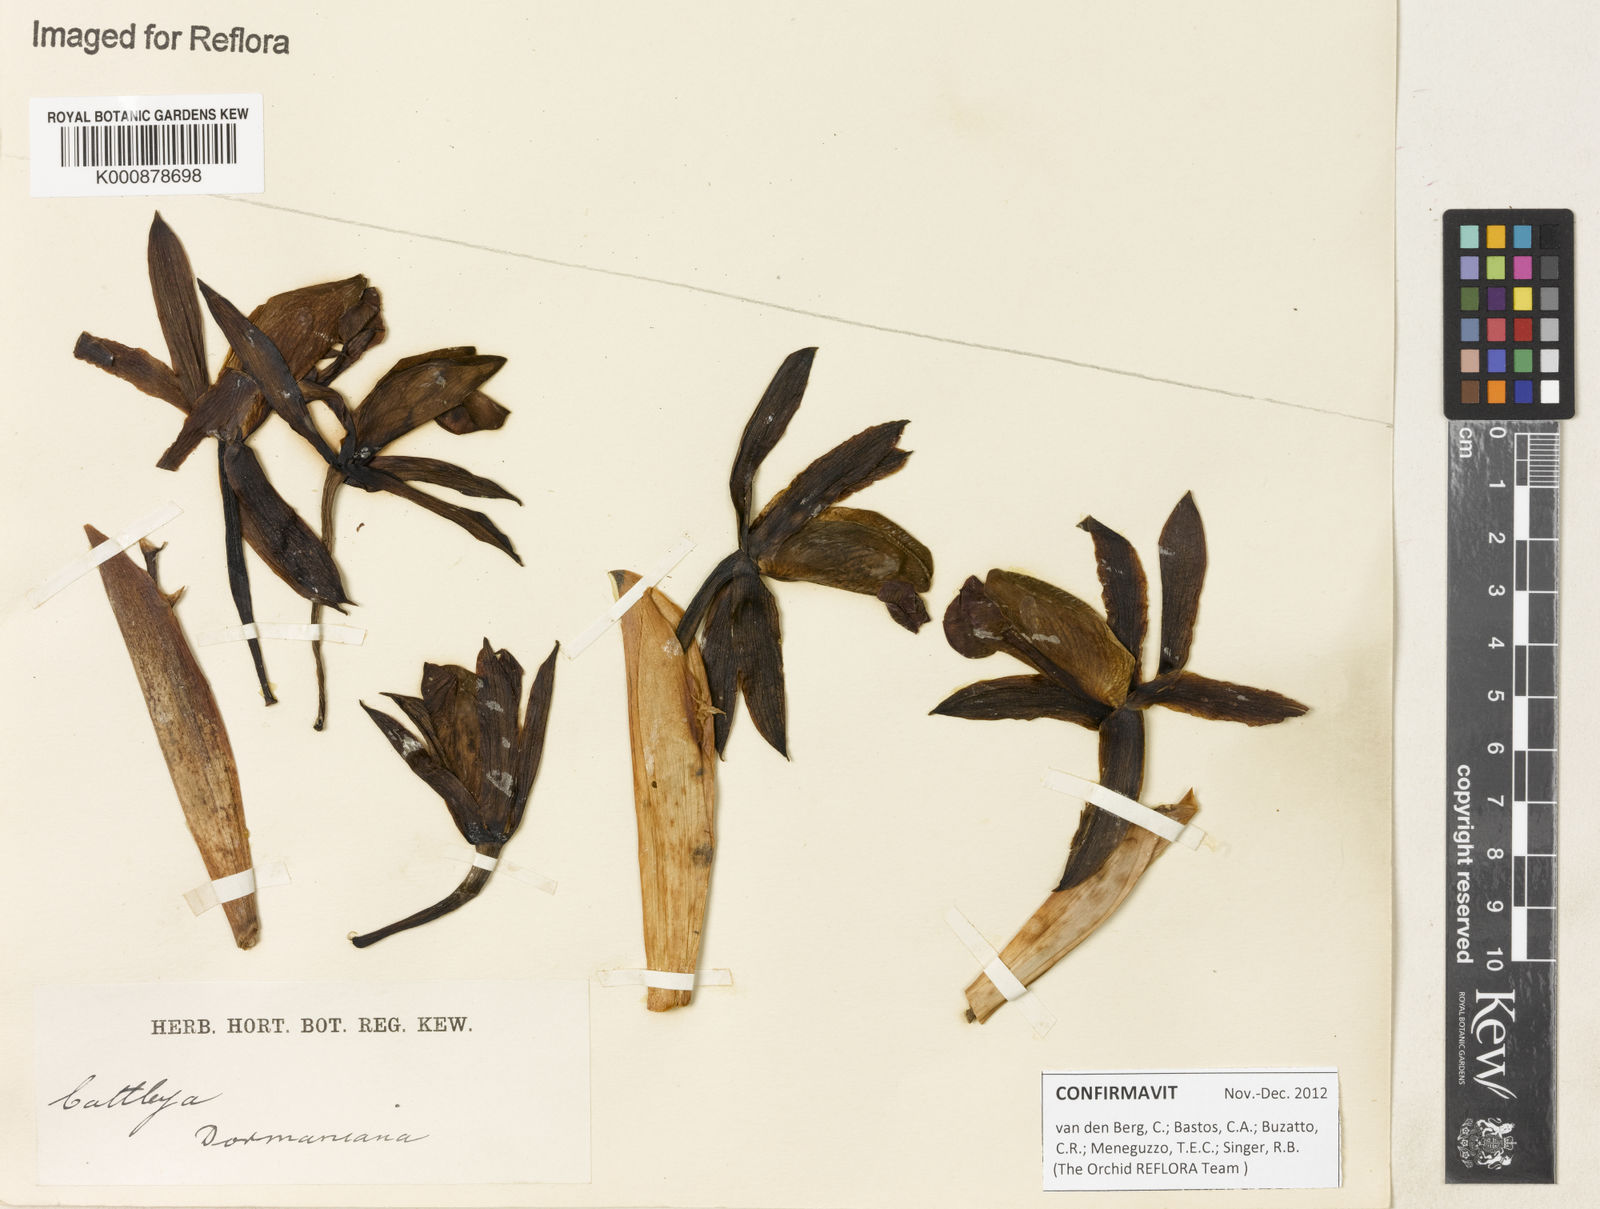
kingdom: Plantae
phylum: Tracheophyta
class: Liliopsida
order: Asparagales
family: Orchidaceae
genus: Cattleya
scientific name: Cattleya dormaniana
